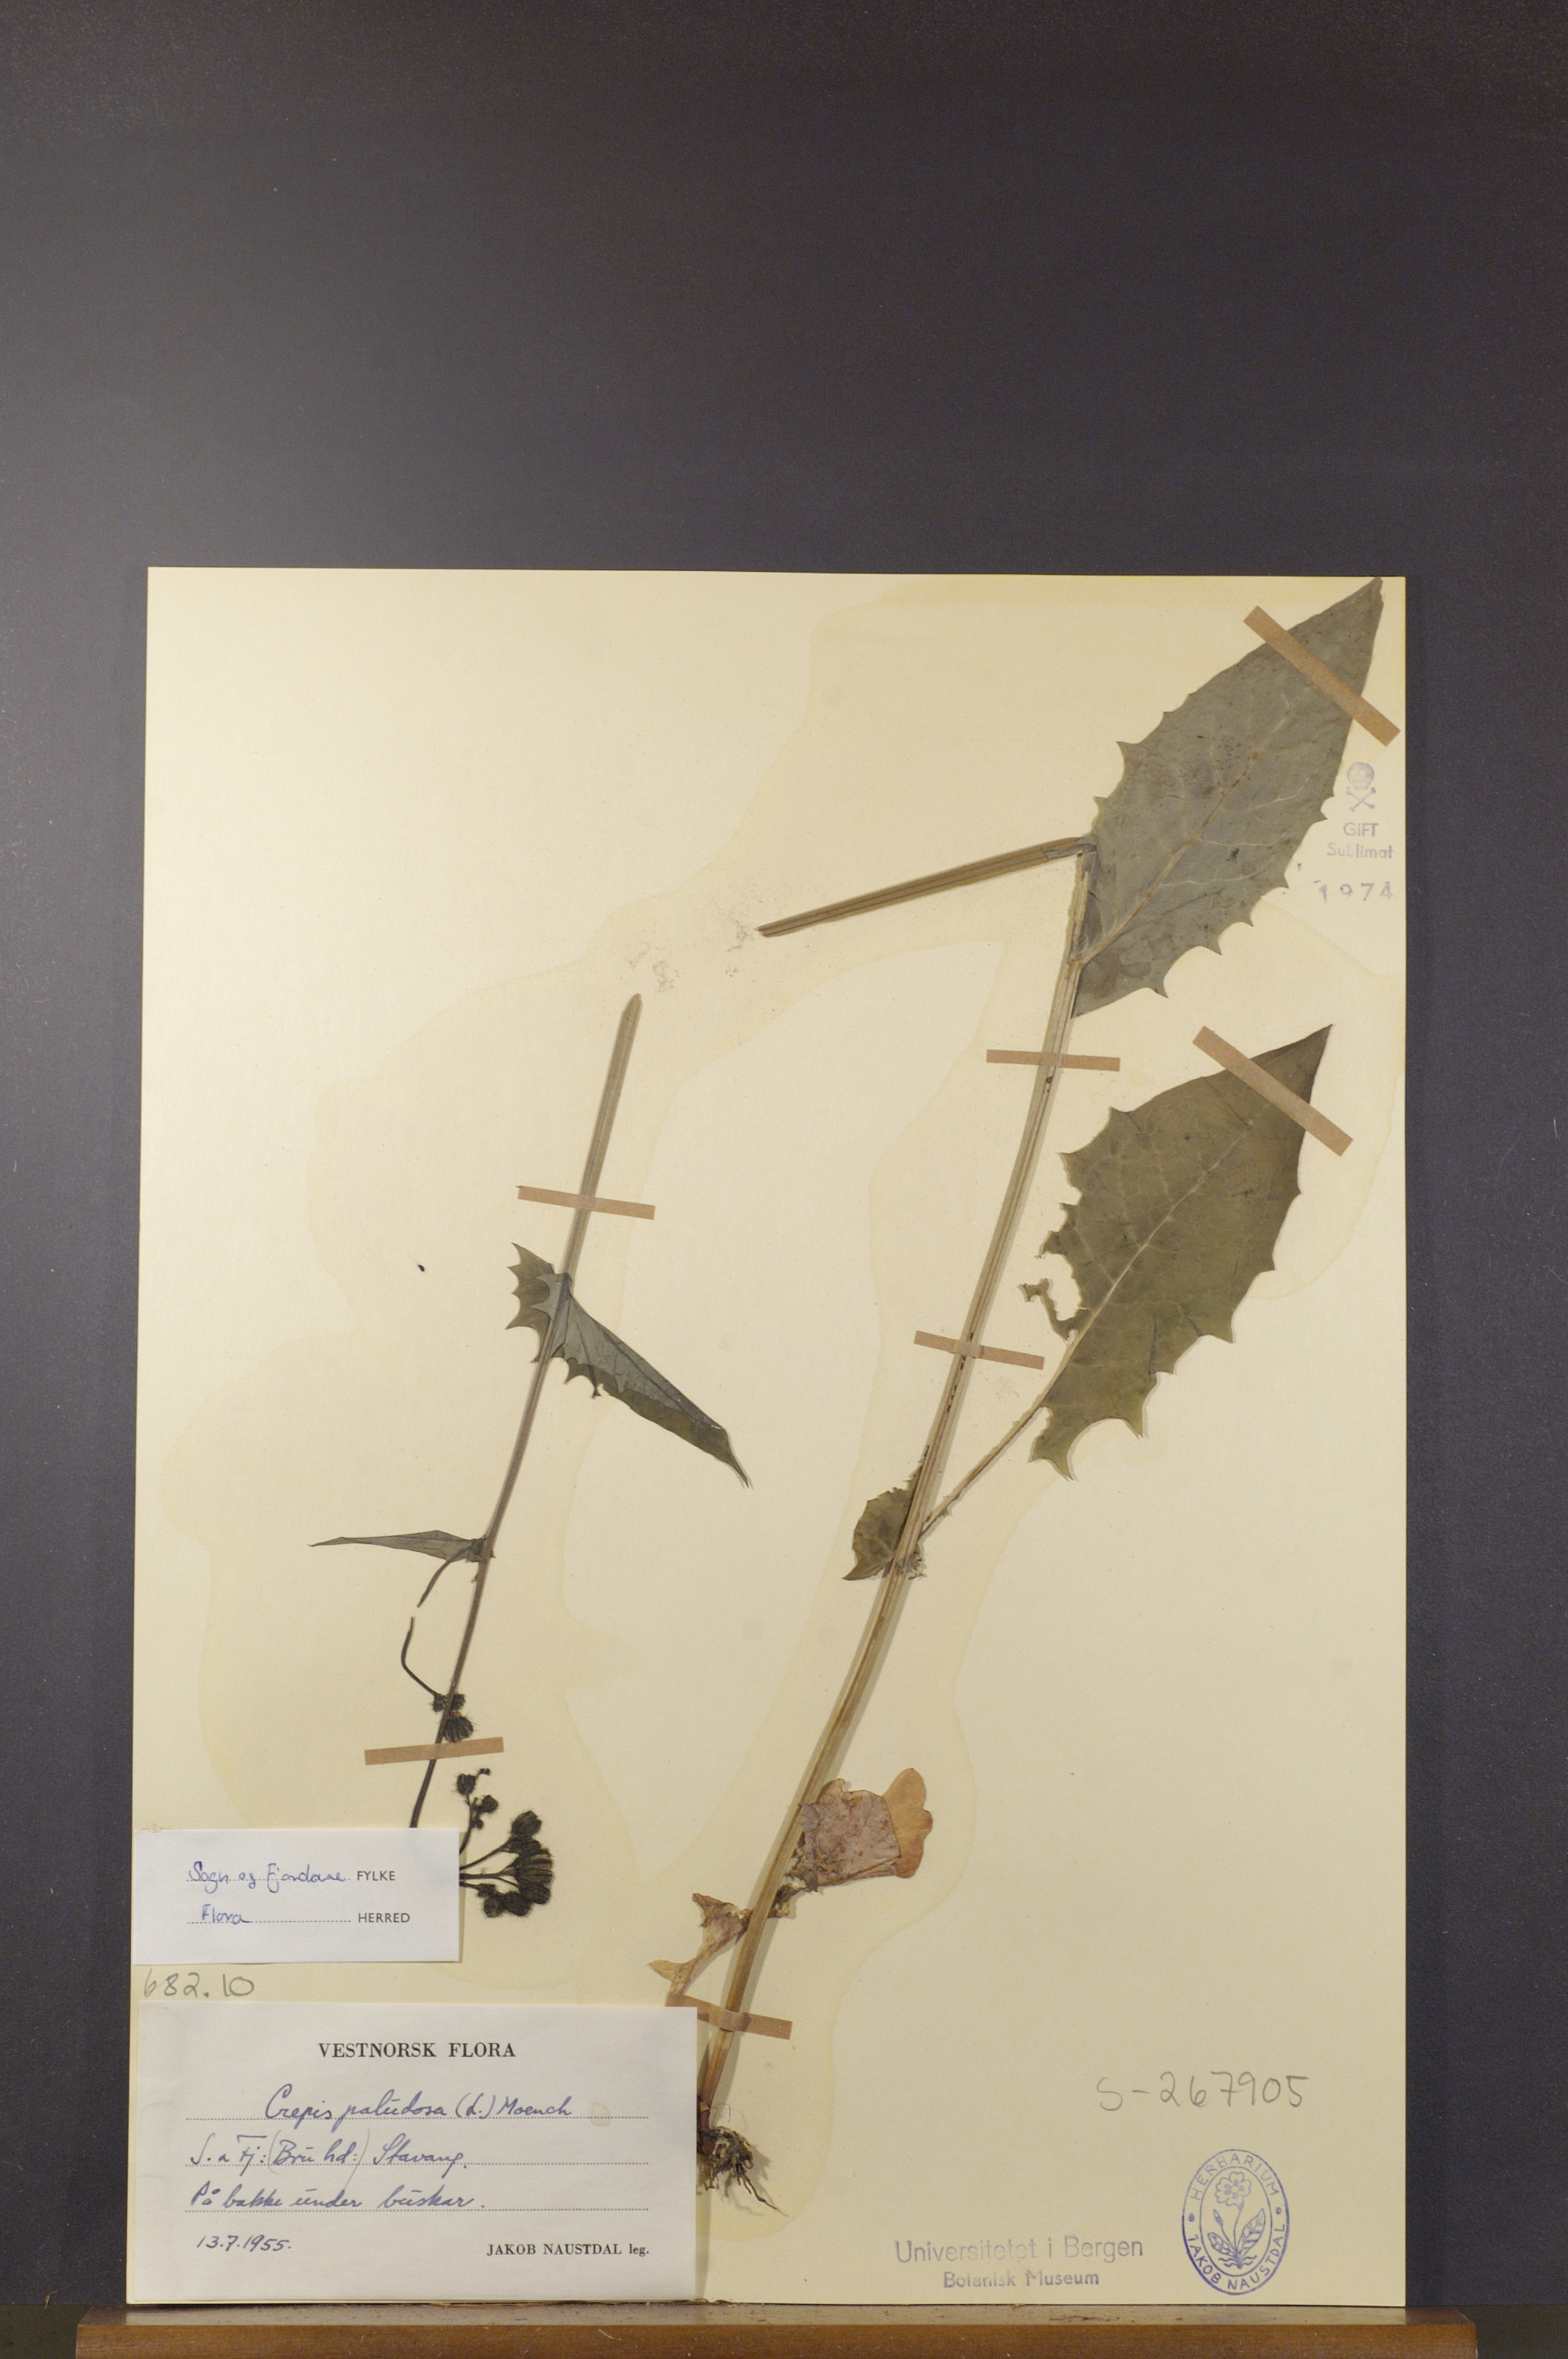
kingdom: Plantae
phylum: Tracheophyta
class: Magnoliopsida
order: Asterales
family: Asteraceae
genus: Crepis
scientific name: Crepis paludosa
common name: Marsh hawk's-beard
